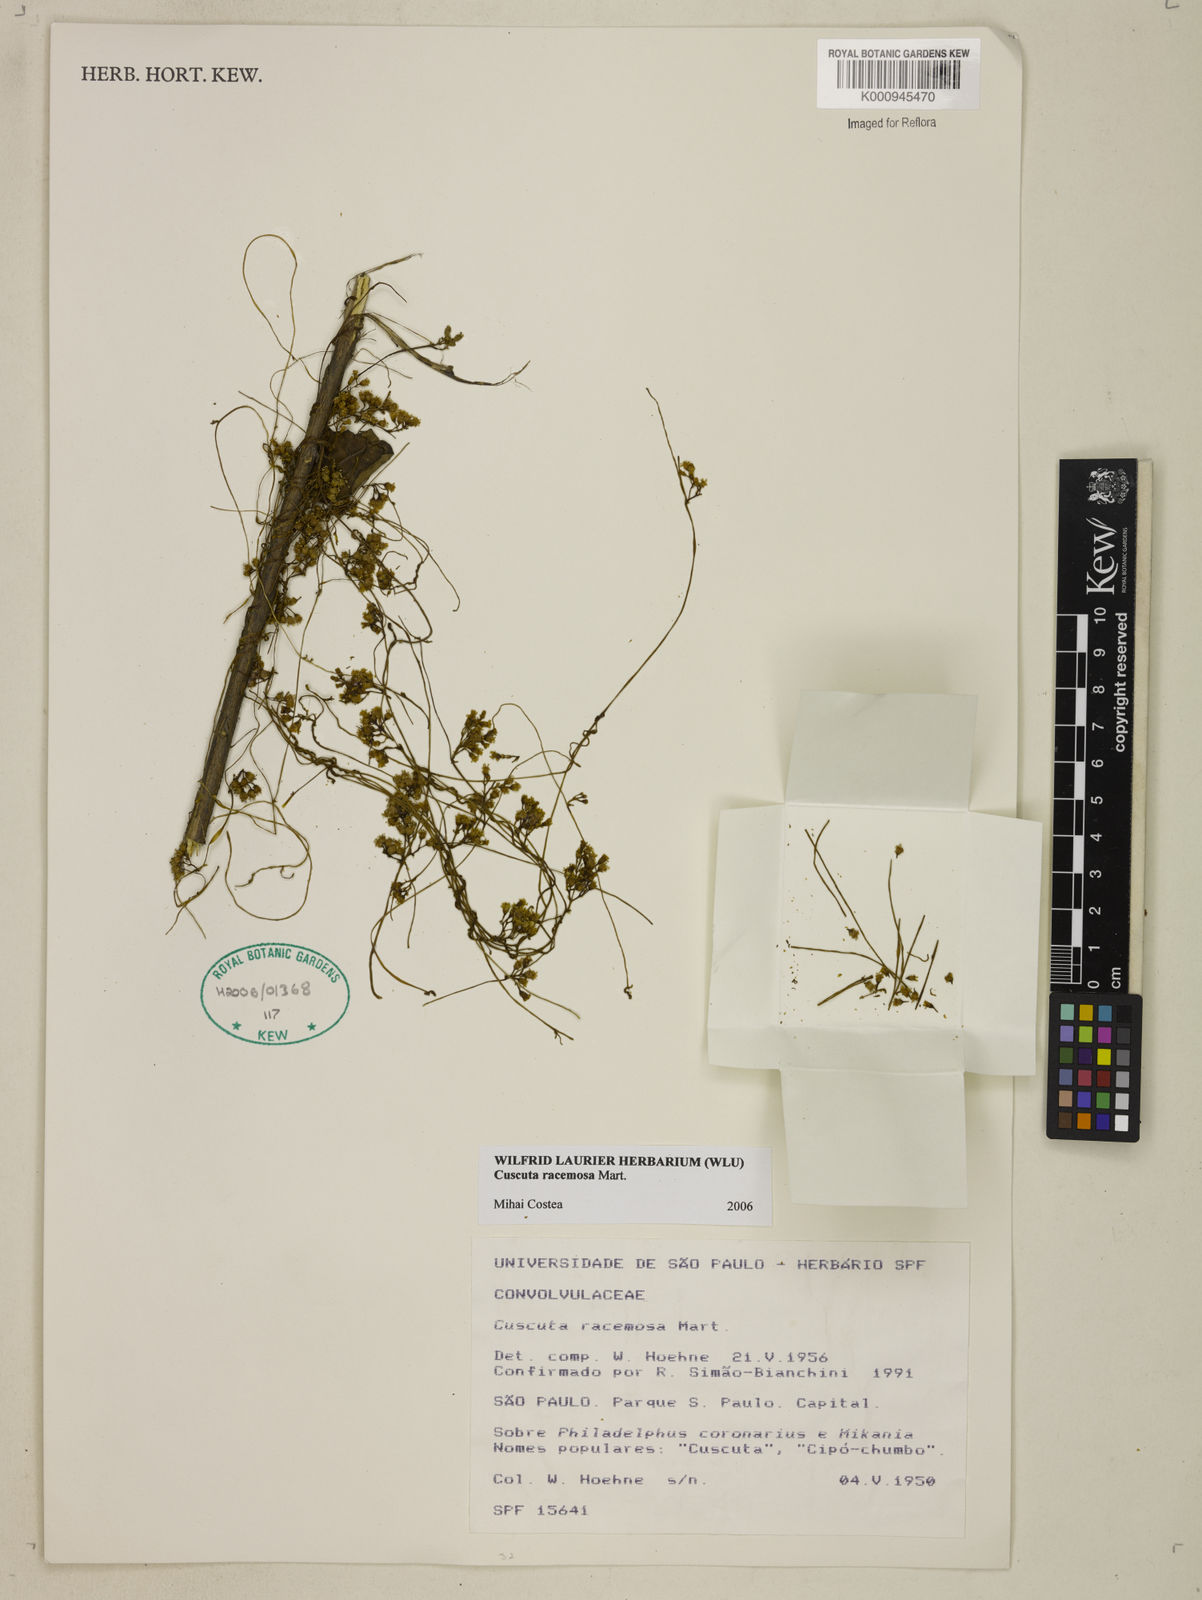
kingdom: Plantae
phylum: Tracheophyta
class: Magnoliopsida
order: Solanales
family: Convolvulaceae
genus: Cuscuta
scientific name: Cuscuta racemosa
